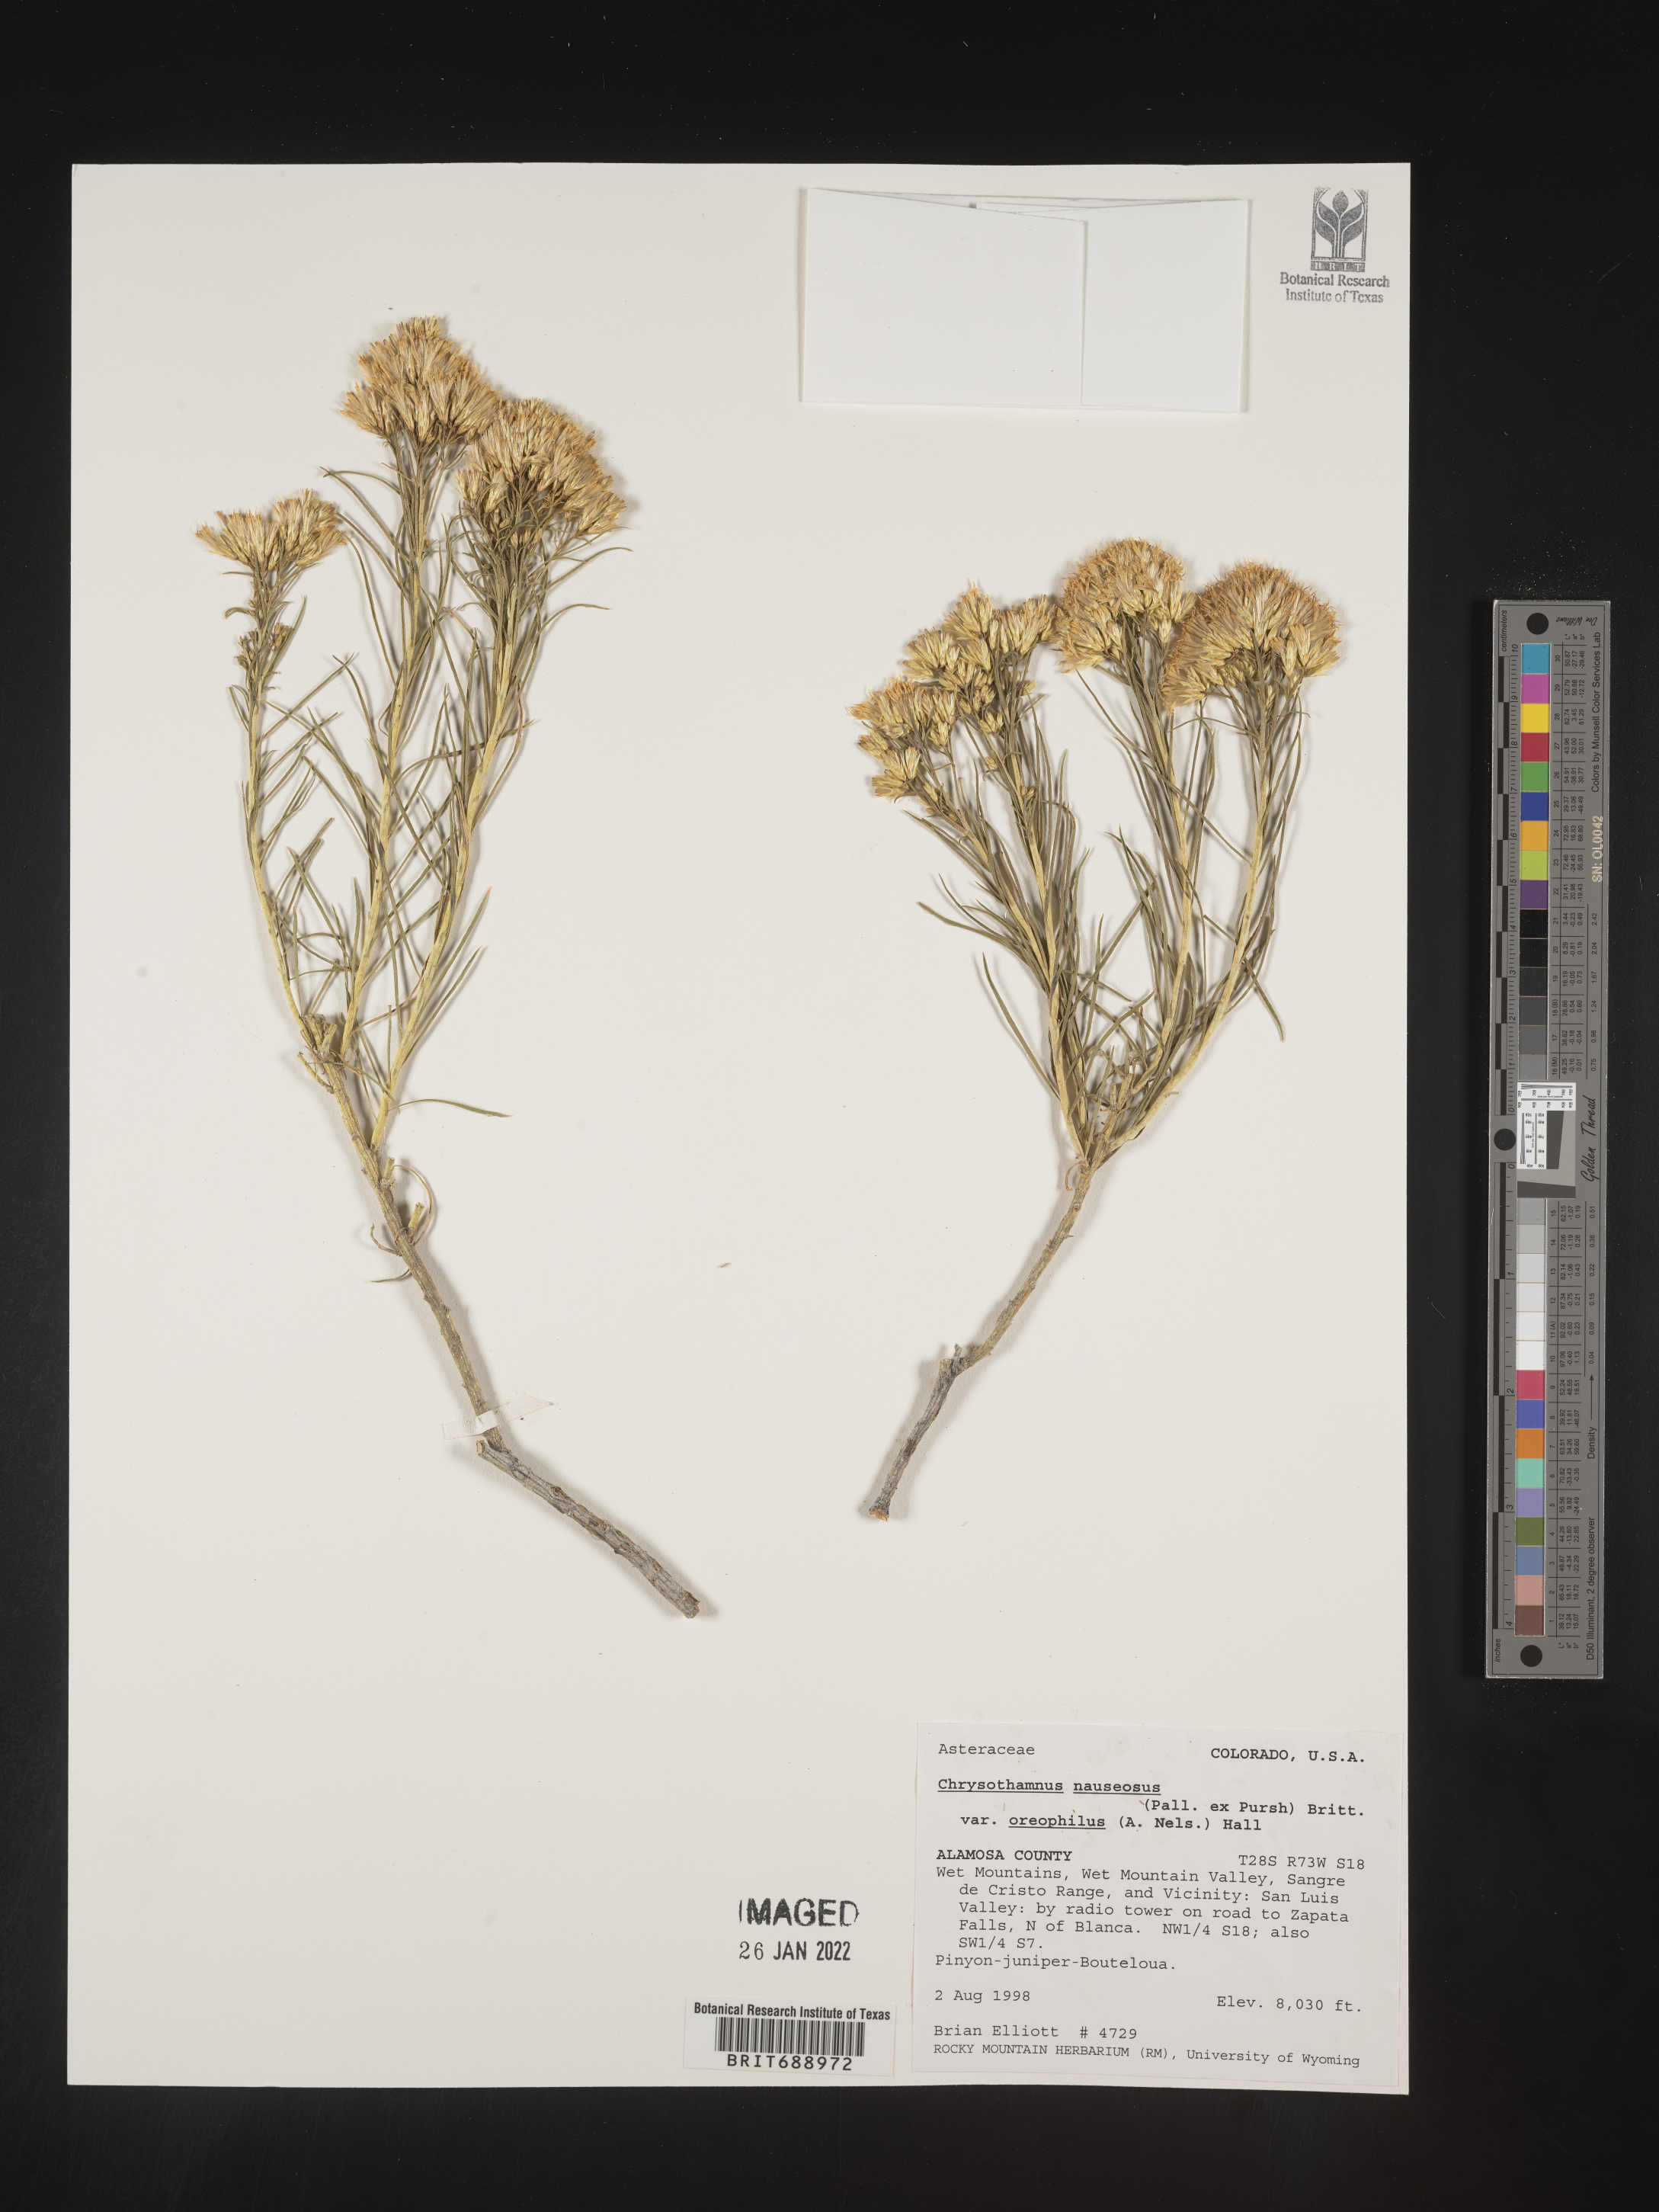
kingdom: Plantae
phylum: Tracheophyta
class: Magnoliopsida
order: Asterales
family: Asteraceae
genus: Ericameria
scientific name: Ericameria nauseosa
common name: Rubber rabbitbrush
